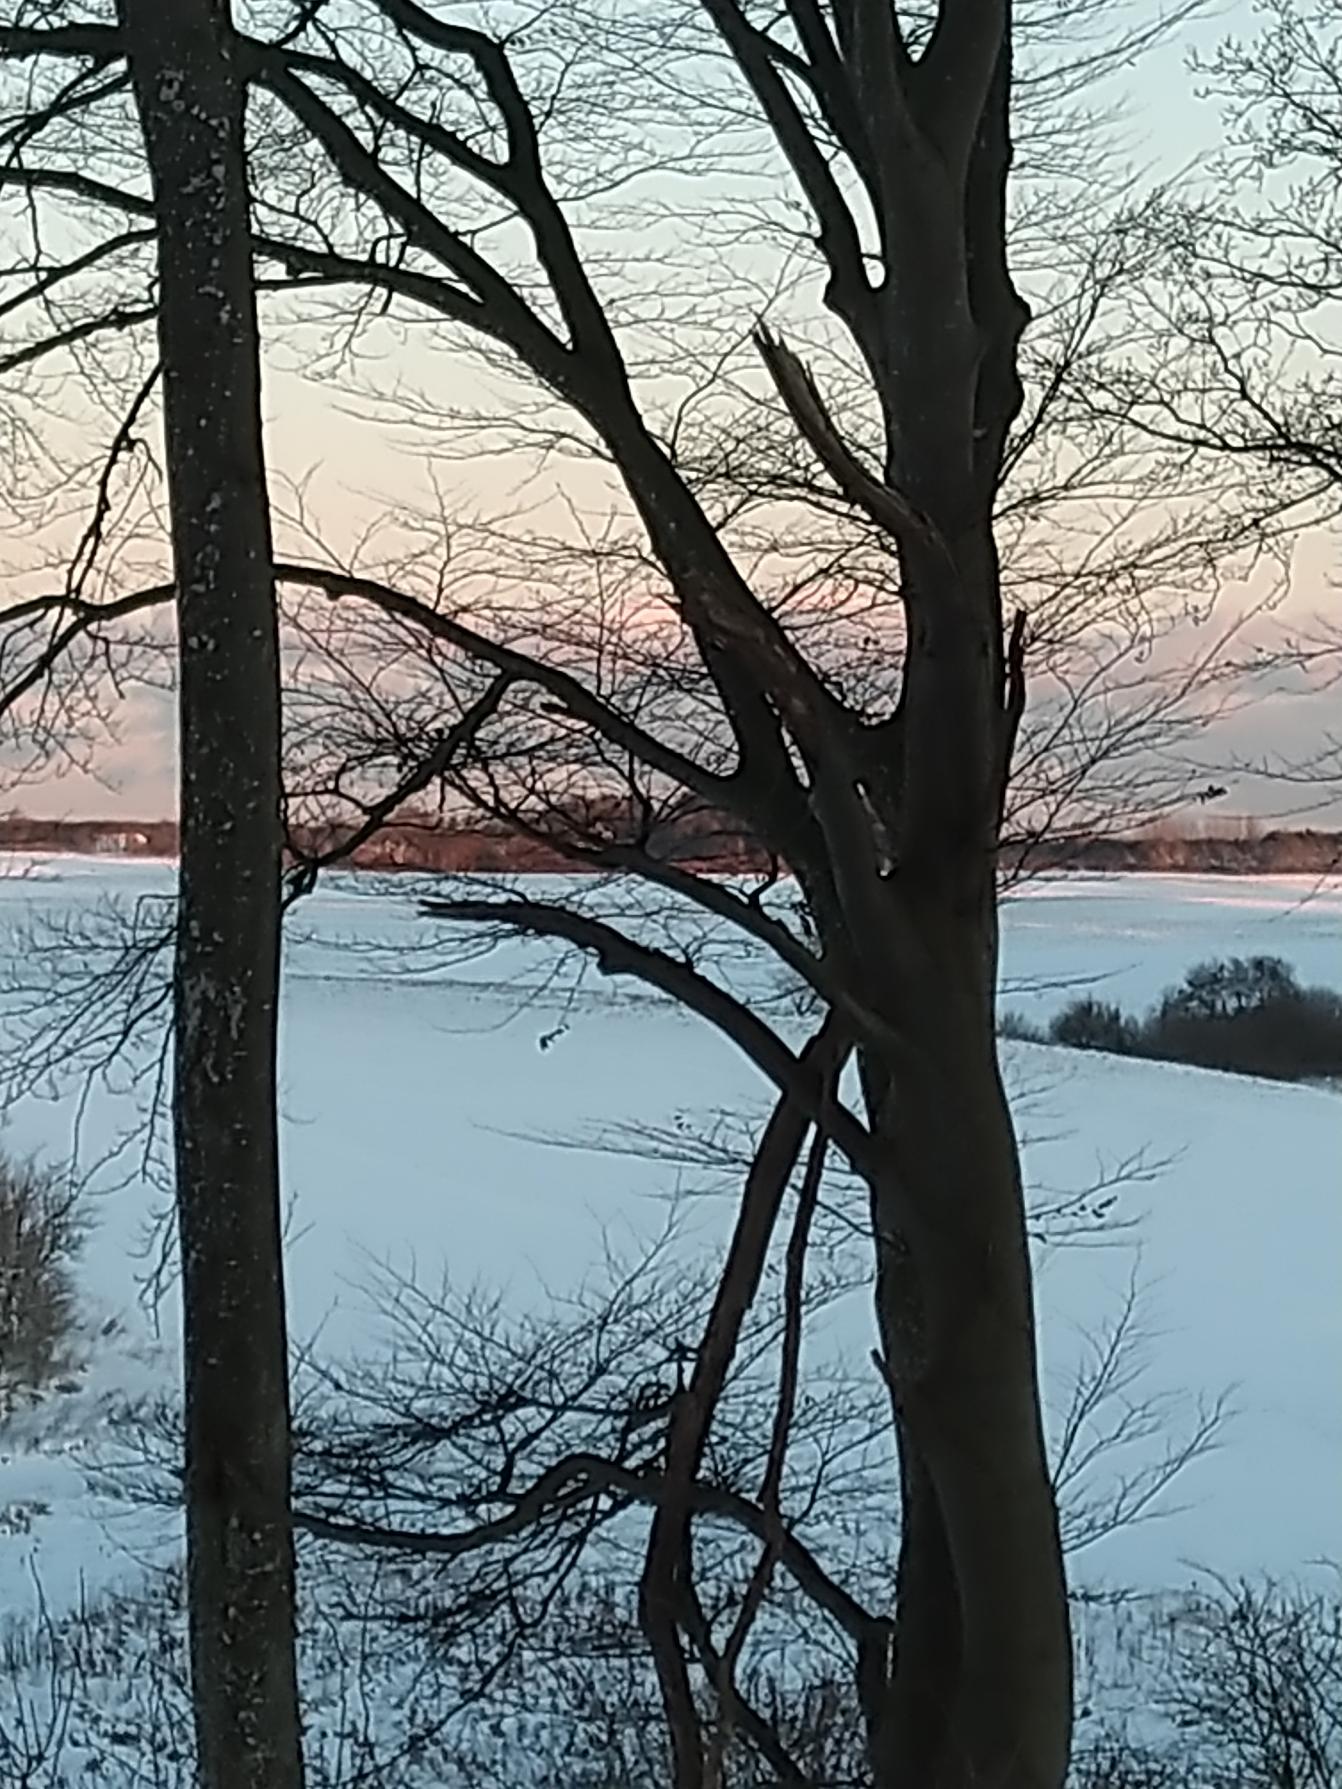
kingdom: Animalia
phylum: Chordata
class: Aves
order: Piciformes
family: Picidae
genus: Dendrocopos
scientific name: Dendrocopos major
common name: Stor flagspætte
